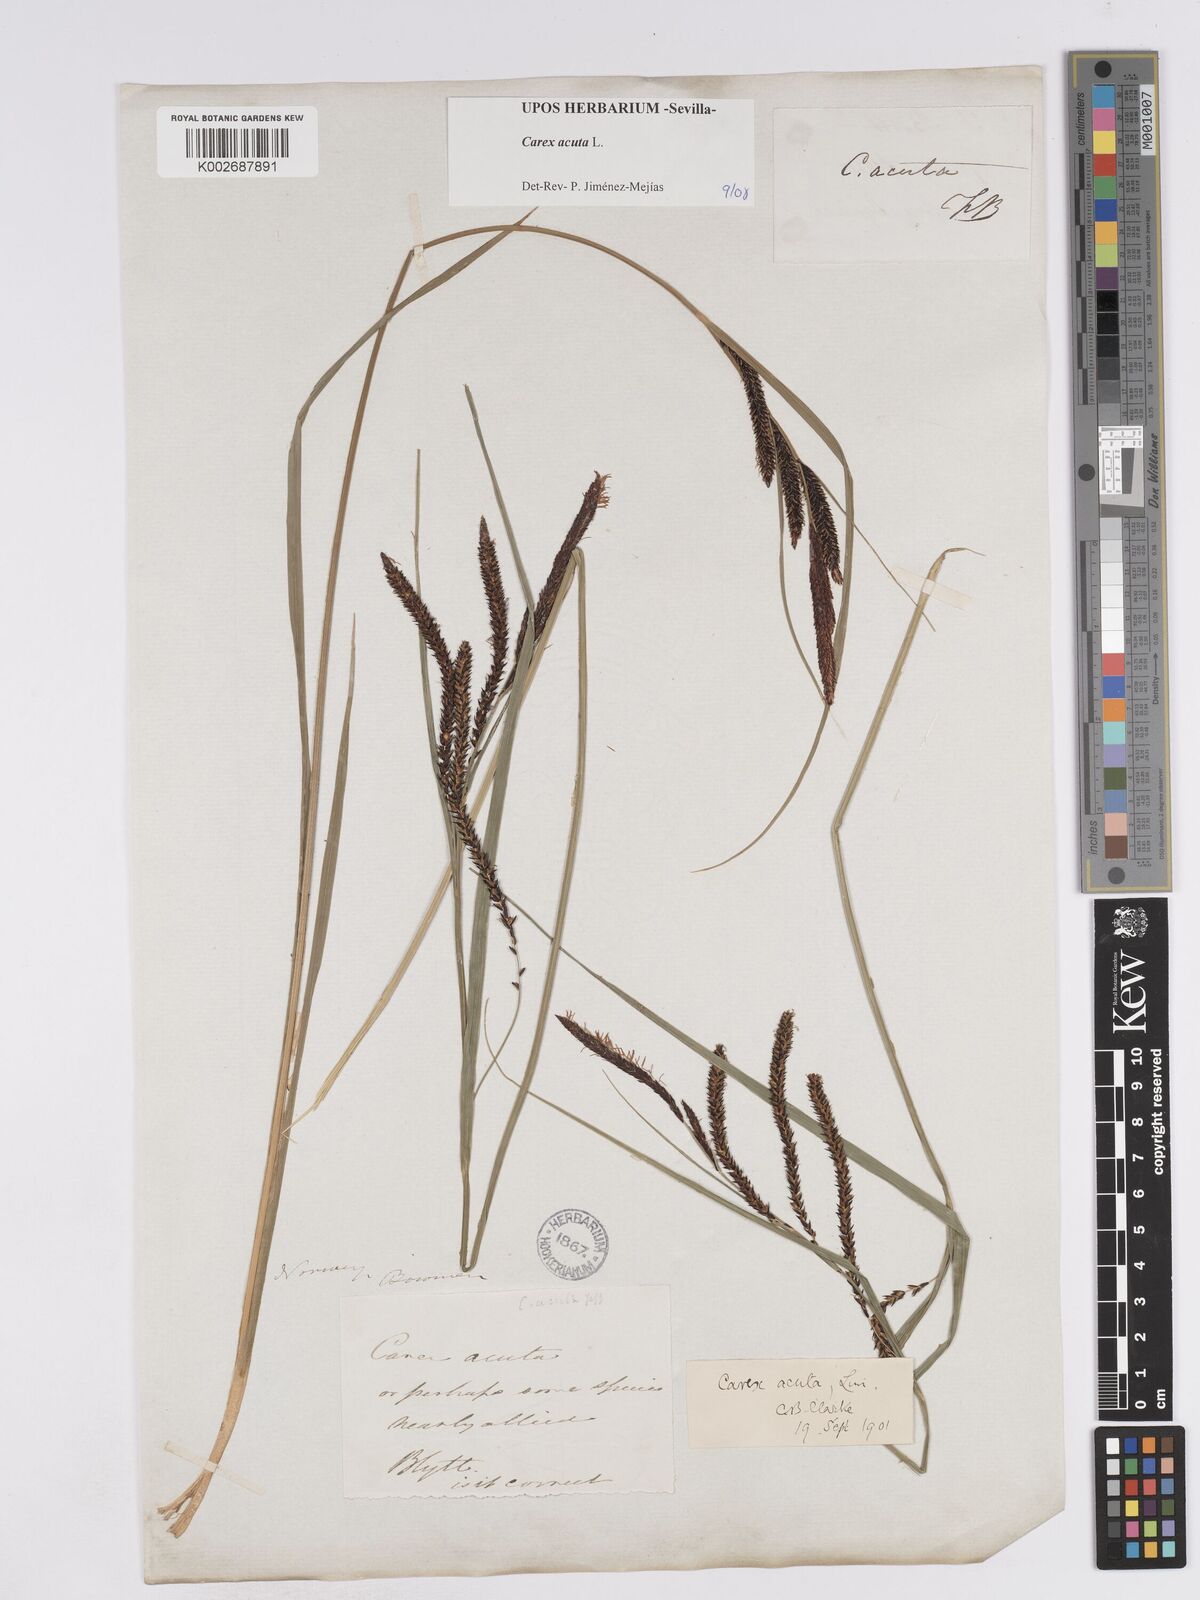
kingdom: Plantae
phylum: Tracheophyta
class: Liliopsida
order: Poales
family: Cyperaceae
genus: Carex
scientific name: Carex acuta
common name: Slender tufted-sedge
